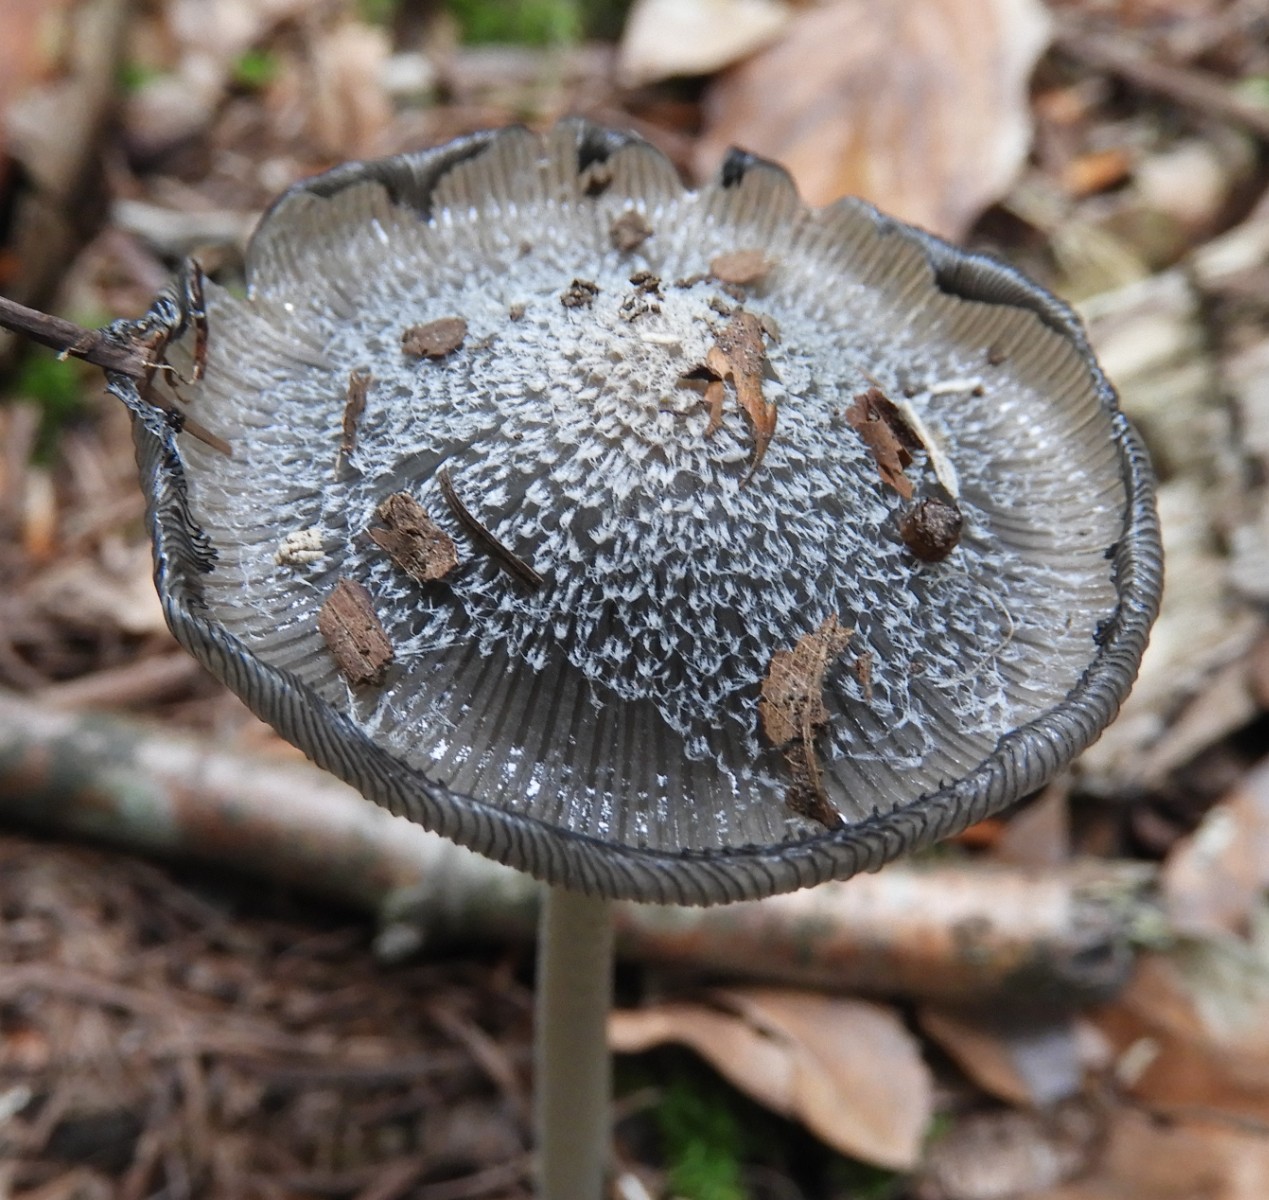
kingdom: Fungi
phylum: Basidiomycota
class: Agaricomycetes
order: Agaricales
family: Psathyrellaceae
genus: Coprinopsis
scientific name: Coprinopsis lagopus
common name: dunstokket blækhat
